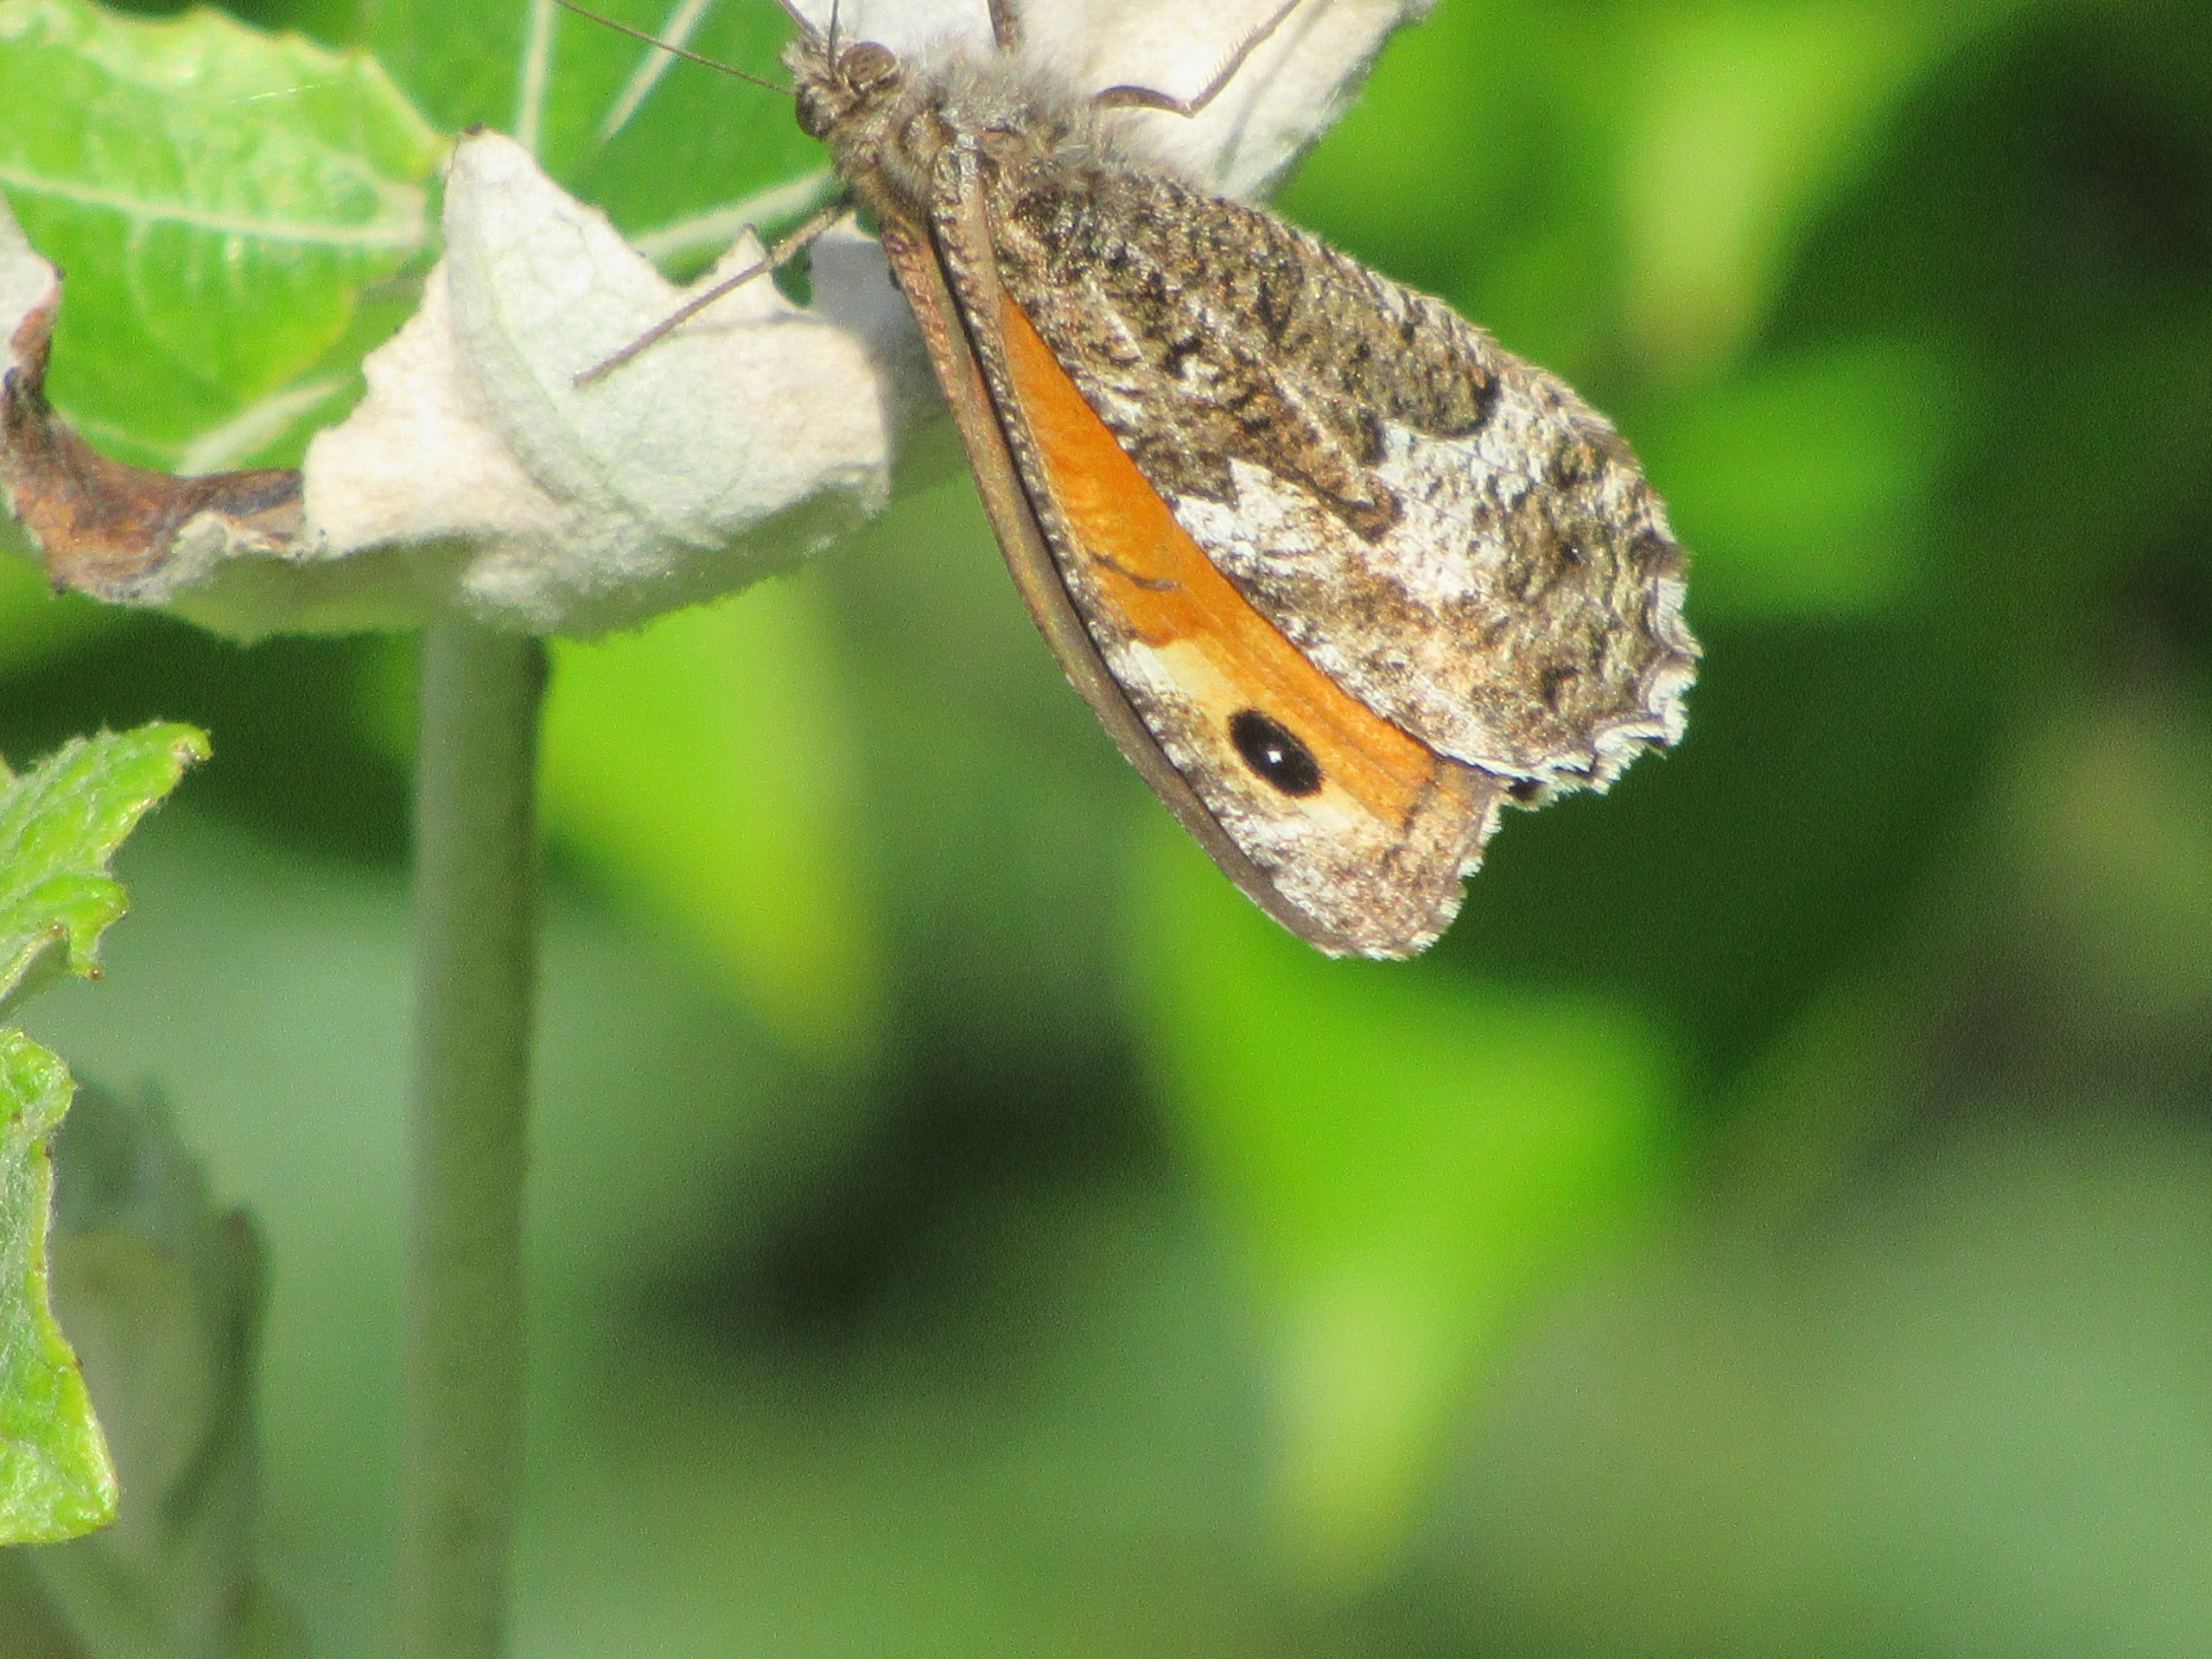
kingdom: Animalia
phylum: Arthropoda
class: Insecta
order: Lepidoptera
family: Nymphalidae
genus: Hipparchia
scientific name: Hipparchia semele
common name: Sandrandøje
